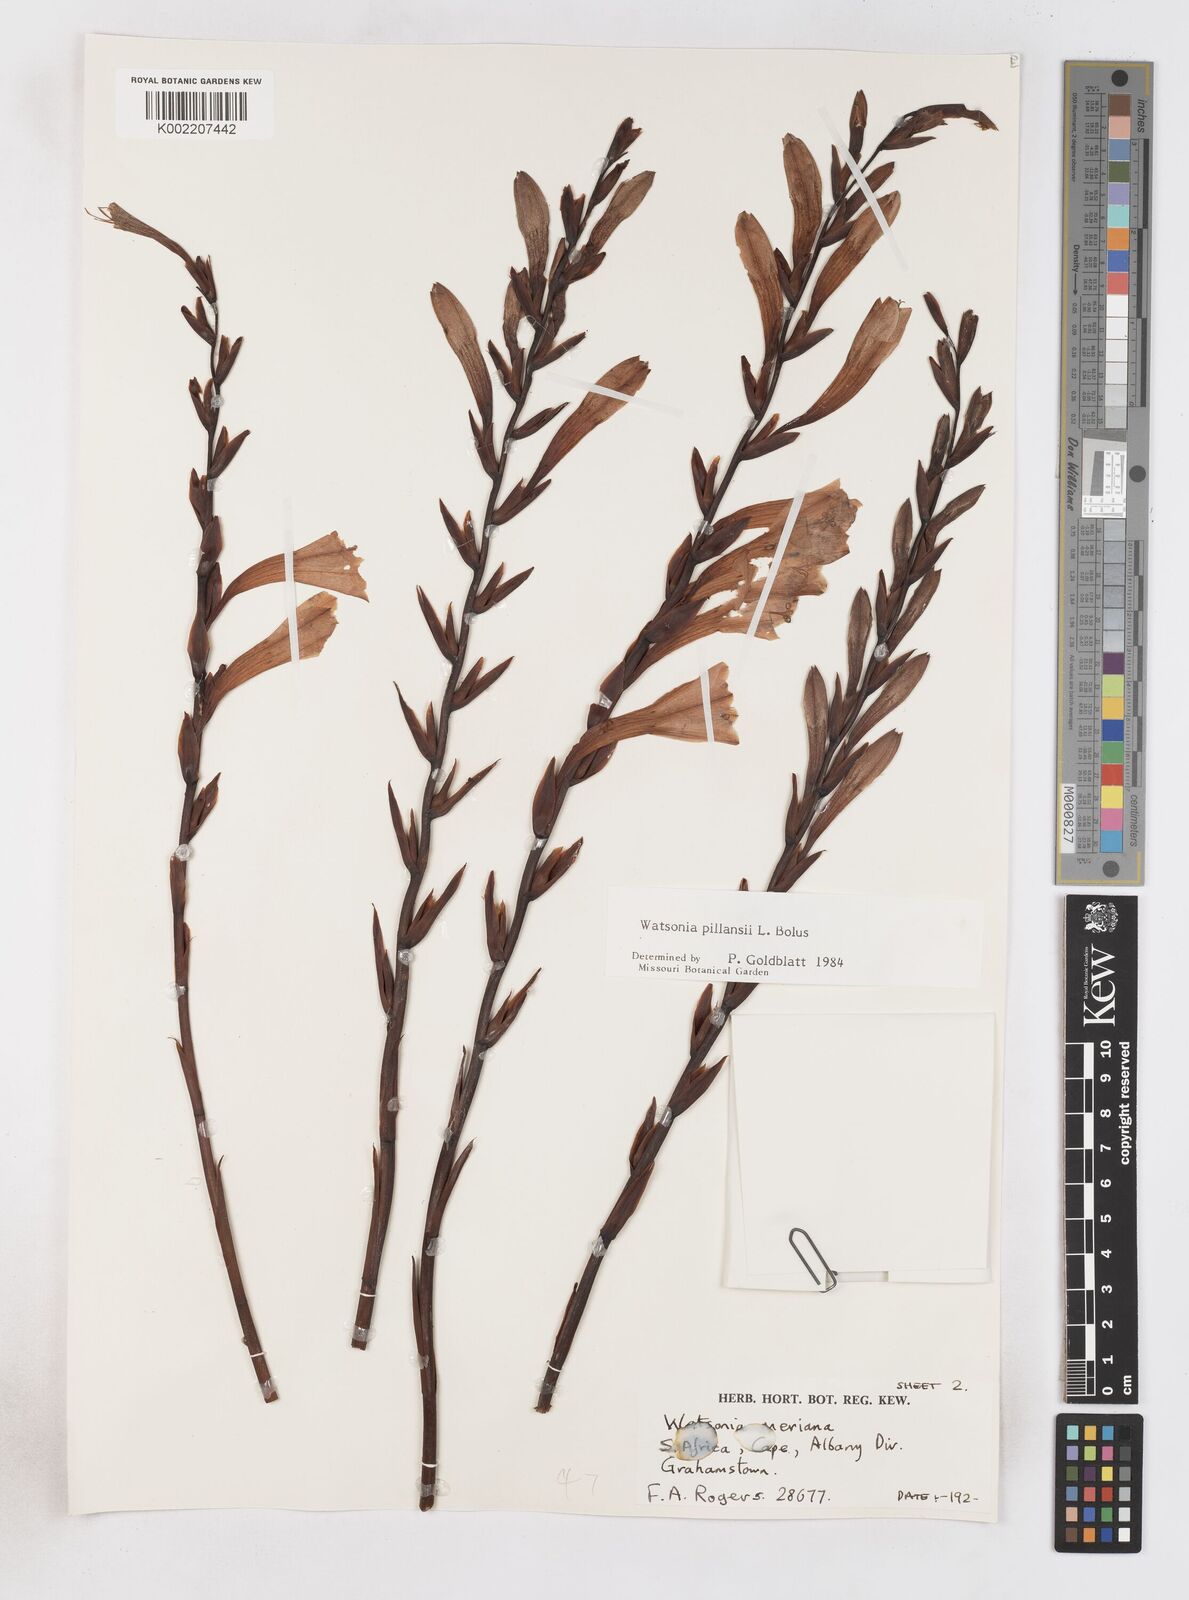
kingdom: Plantae
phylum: Tracheophyta
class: Liliopsida
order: Asparagales
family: Iridaceae
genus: Watsonia
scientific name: Watsonia pillansii
